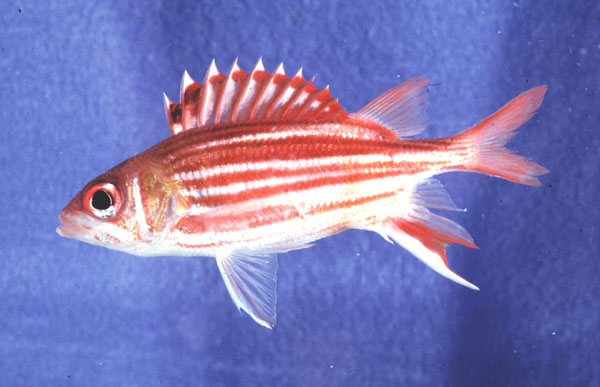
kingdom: Animalia
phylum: Chordata
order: Beryciformes
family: Holocentridae
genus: Sargocentron
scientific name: Sargocentron microstoma
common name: Fine-lined squirrelfish
